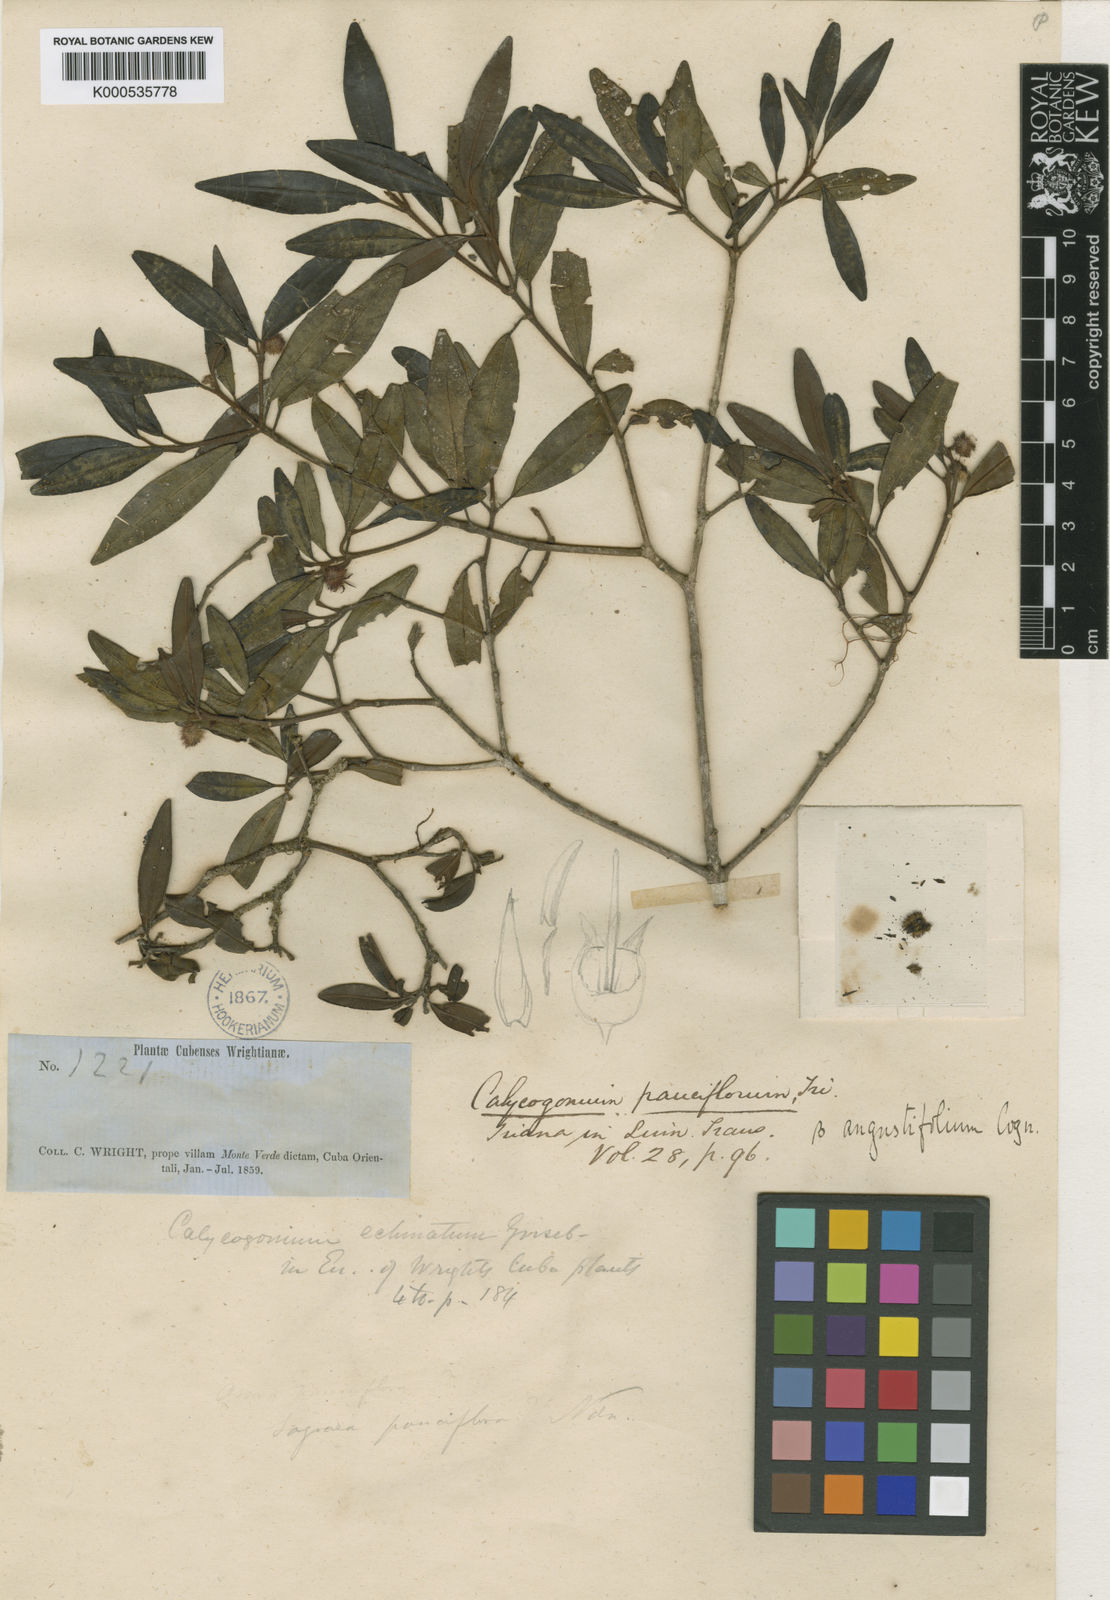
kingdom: Plantae
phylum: Tracheophyta
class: Magnoliopsida
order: Myrtales
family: Melastomataceae
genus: Miconia
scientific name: Miconia echinata
